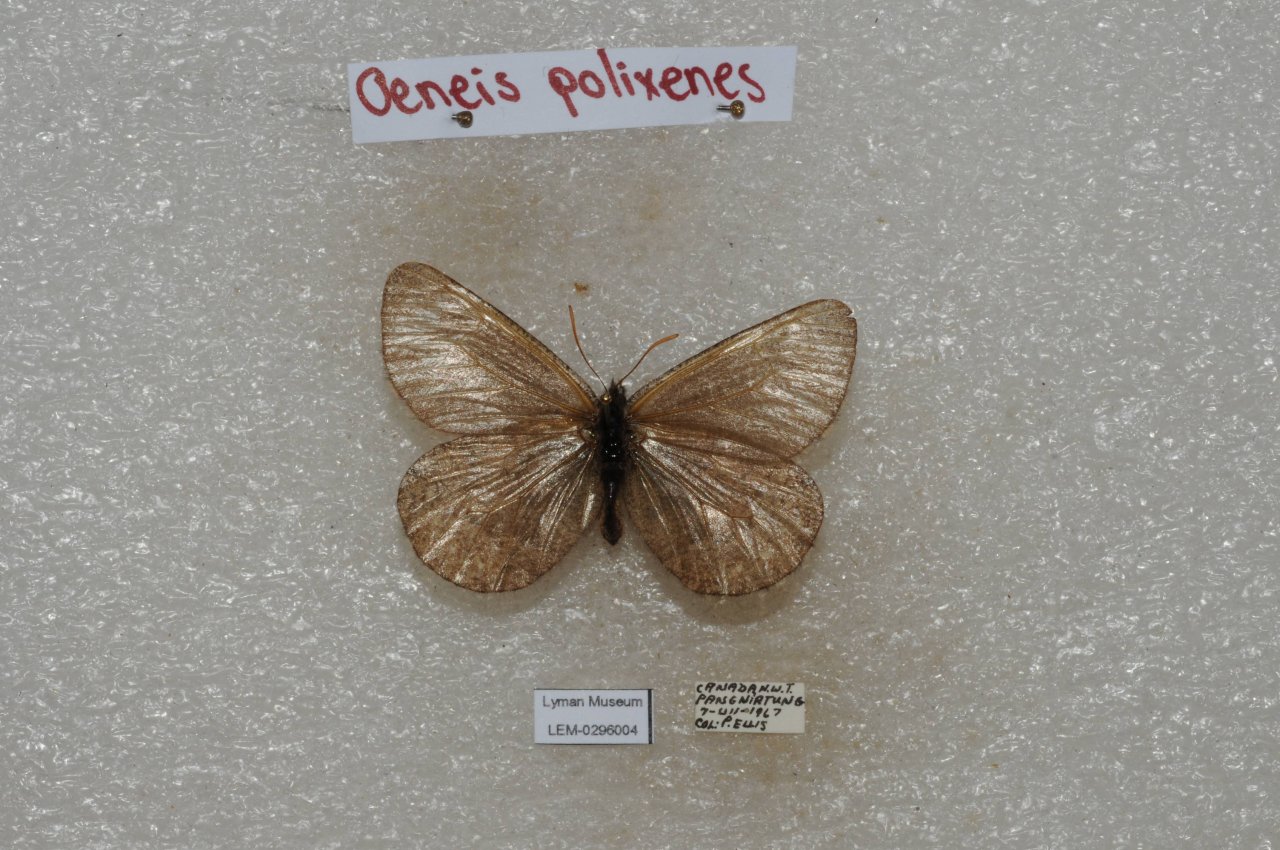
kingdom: Animalia
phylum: Arthropoda
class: Insecta
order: Lepidoptera
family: Nymphalidae
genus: Oeneis
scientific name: Oeneis bore
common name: Polixenes Arctic
